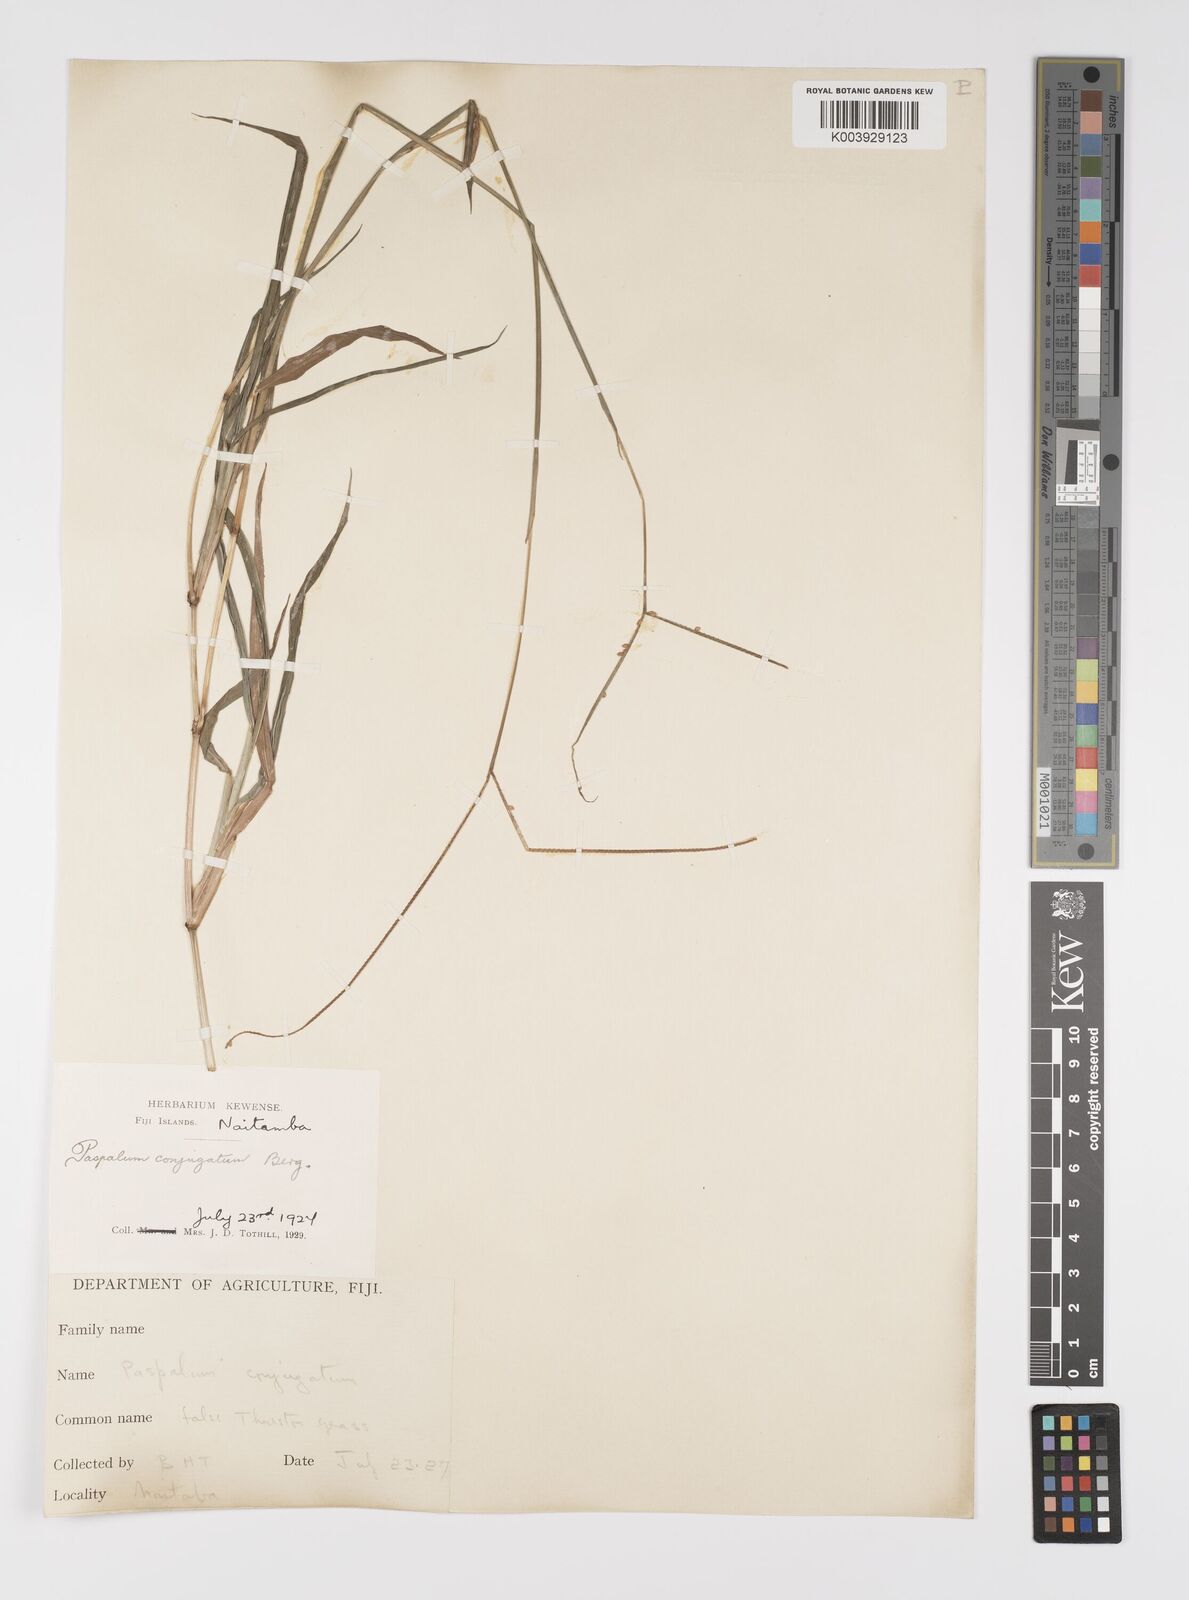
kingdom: Plantae
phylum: Tracheophyta
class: Liliopsida
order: Poales
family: Poaceae
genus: Paspalum
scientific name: Paspalum conjugatum
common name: Hilograss
